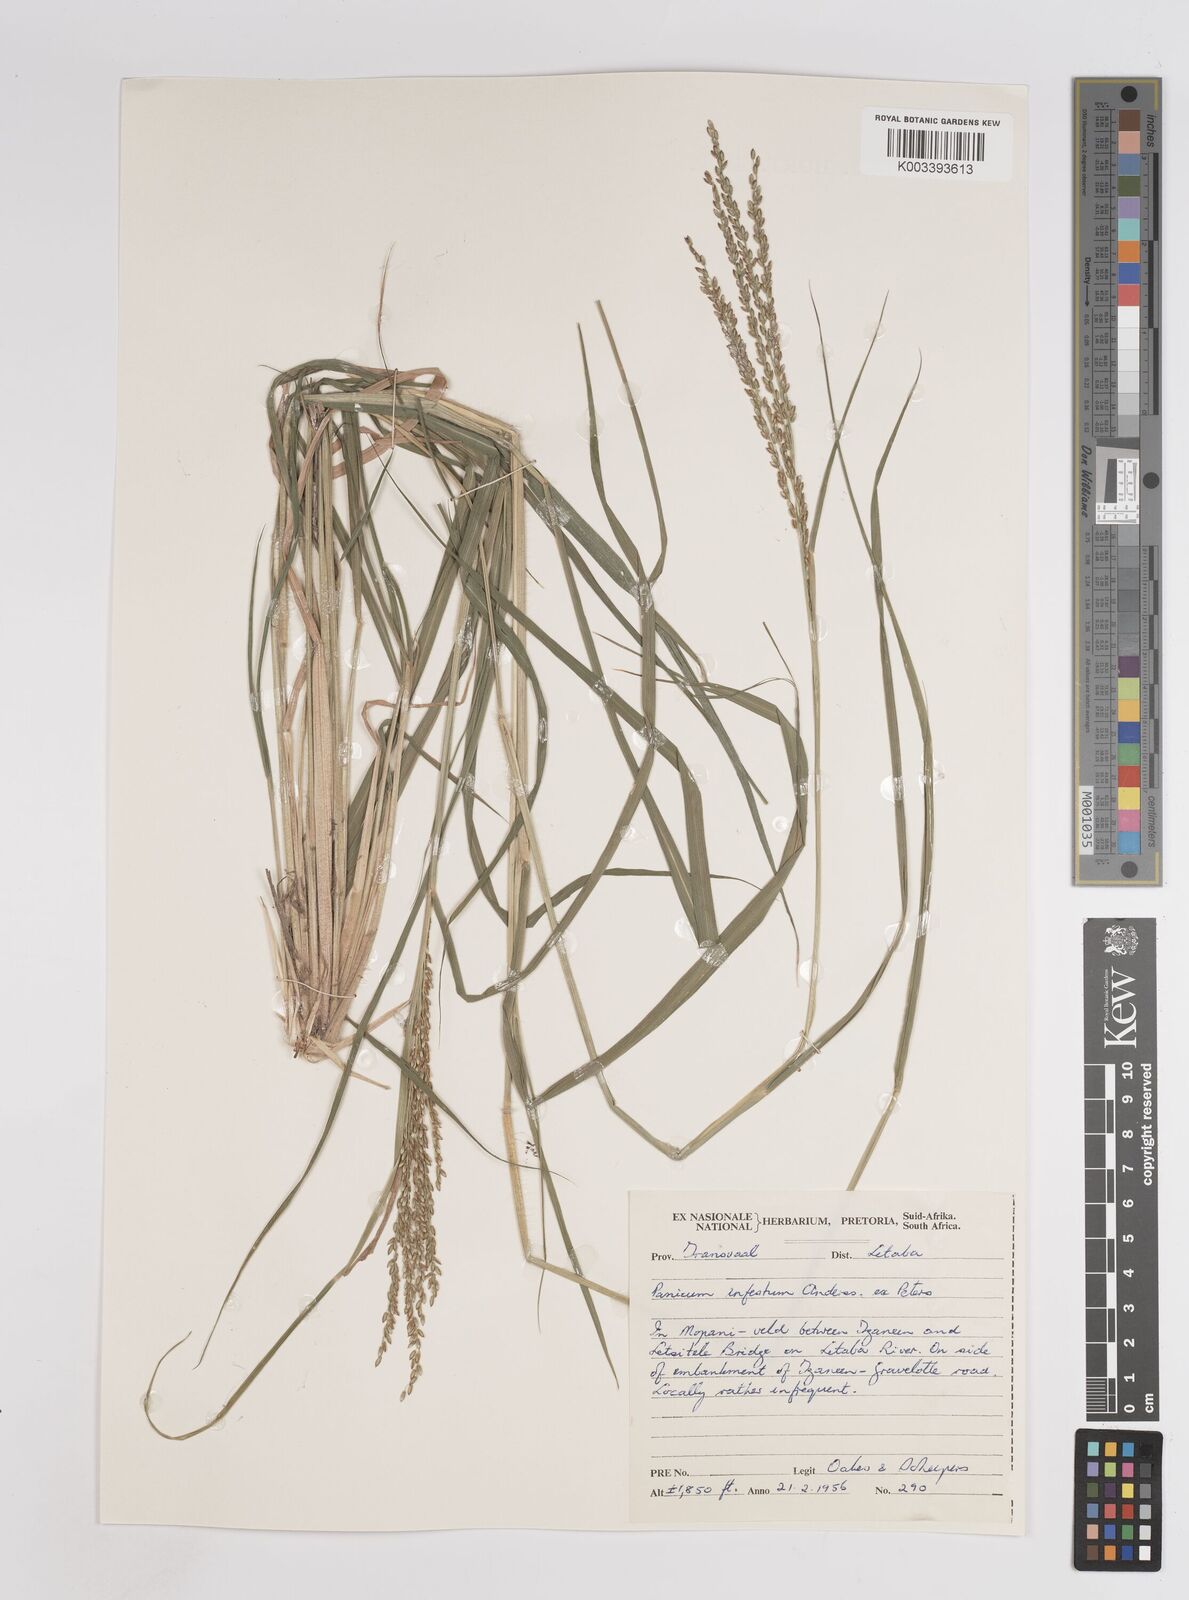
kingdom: Plantae
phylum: Tracheophyta
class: Liliopsida
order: Poales
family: Poaceae
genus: Megathyrsus
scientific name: Megathyrsus infestus
